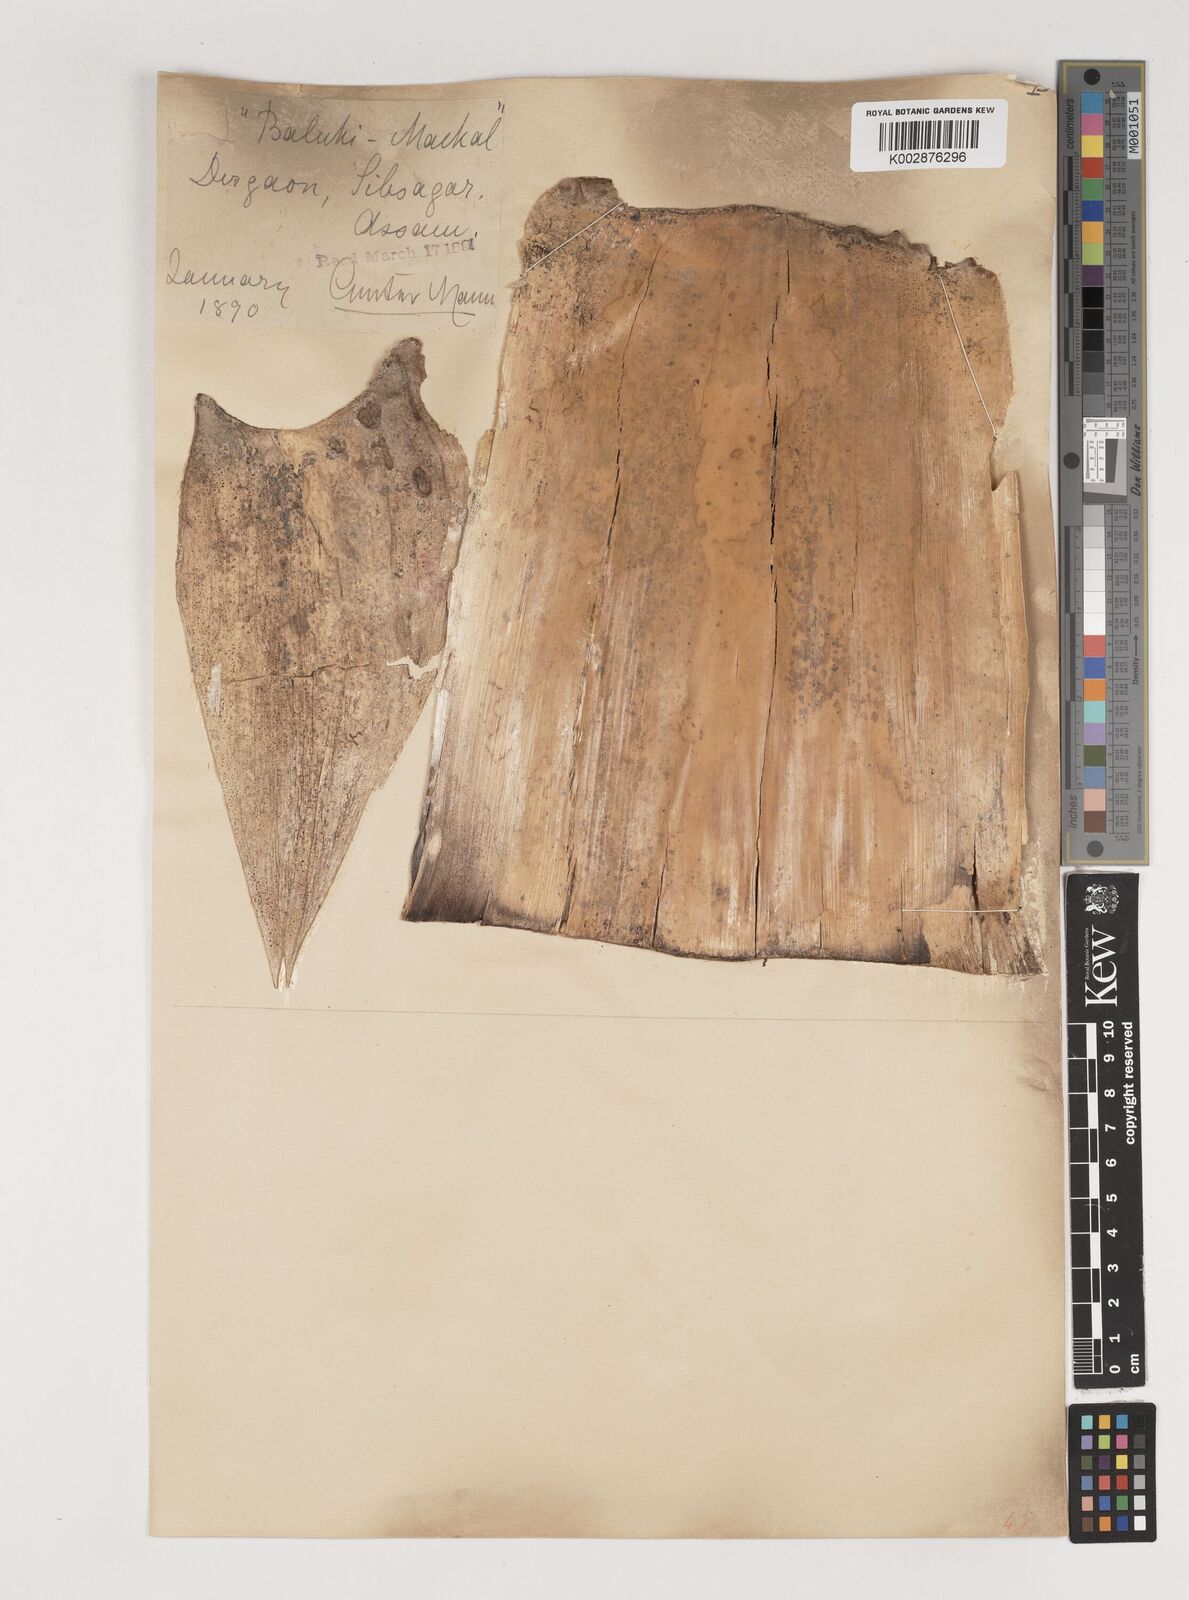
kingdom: Plantae
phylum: Tracheophyta
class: Liliopsida
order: Poales
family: Poaceae
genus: Bambusa
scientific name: Bambusa balcooa
